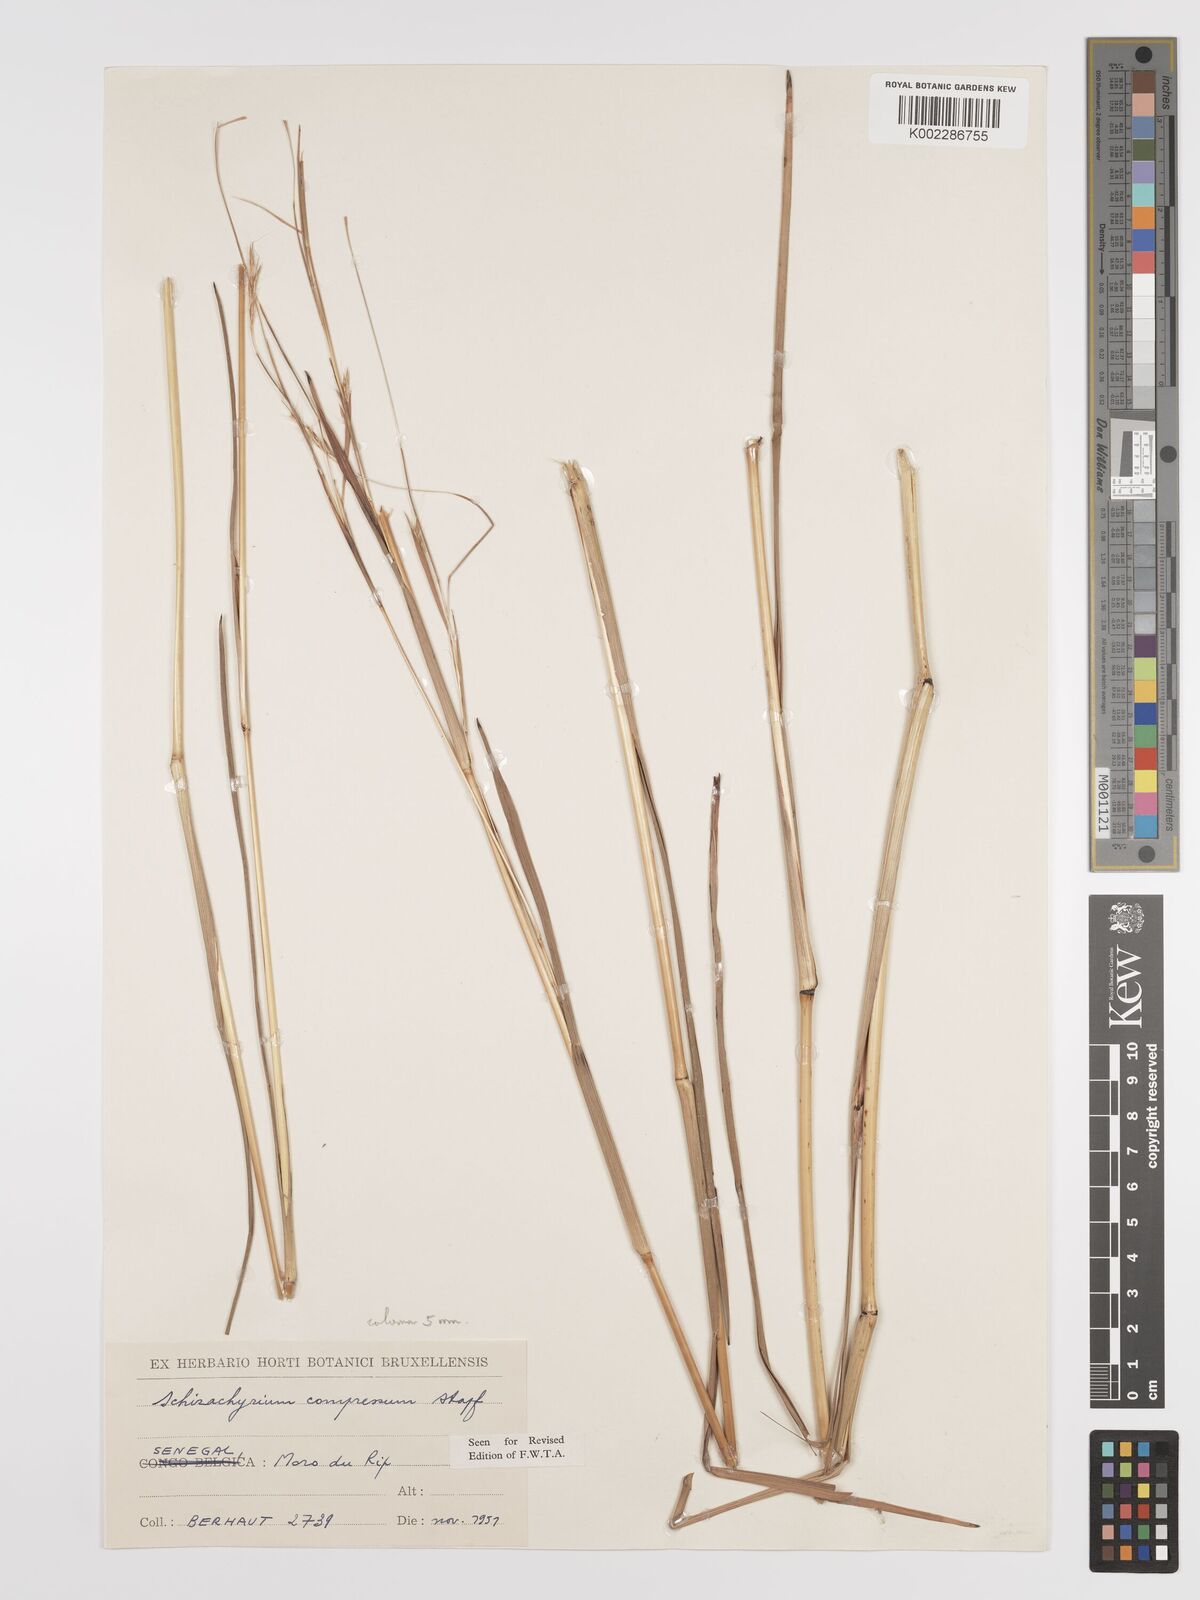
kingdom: Plantae
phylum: Tracheophyta
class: Liliopsida
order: Poales
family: Poaceae
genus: Andropogon
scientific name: Andropogon rupestris
